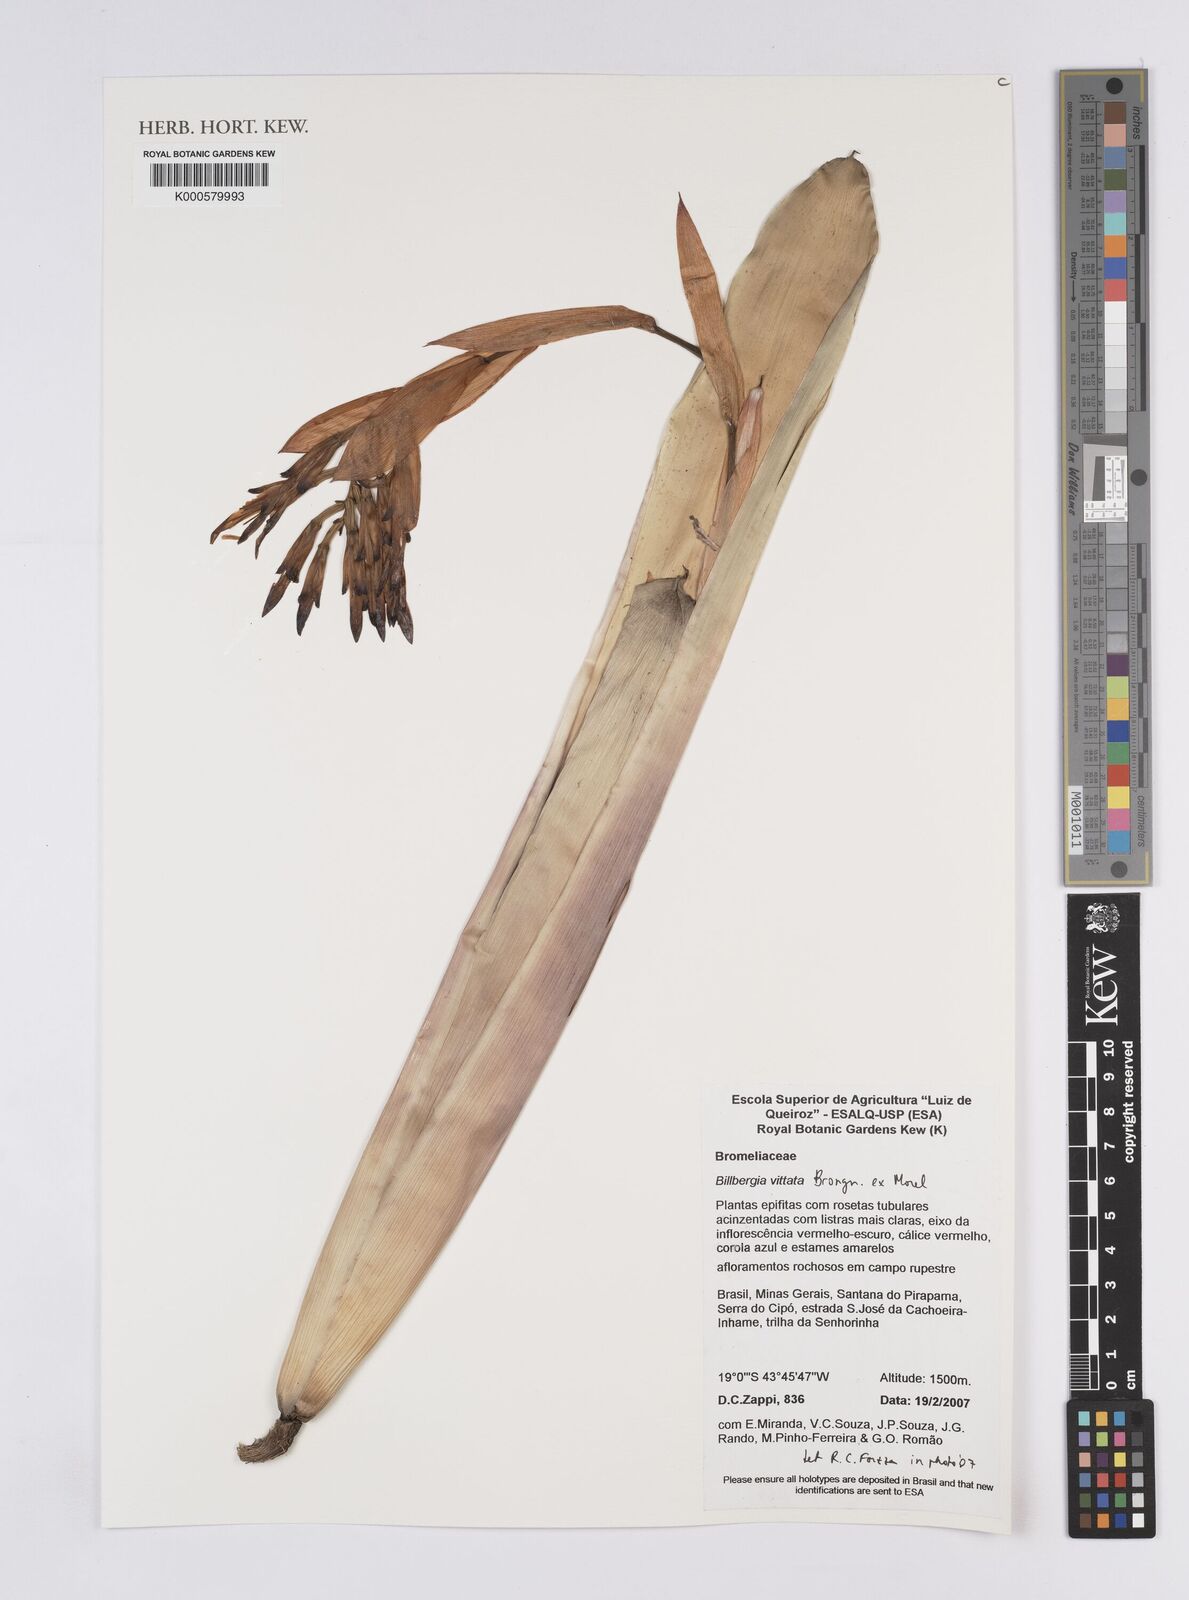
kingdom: Plantae
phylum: Tracheophyta
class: Liliopsida
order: Poales
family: Bromeliaceae
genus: Billbergia
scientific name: Billbergia vittata
